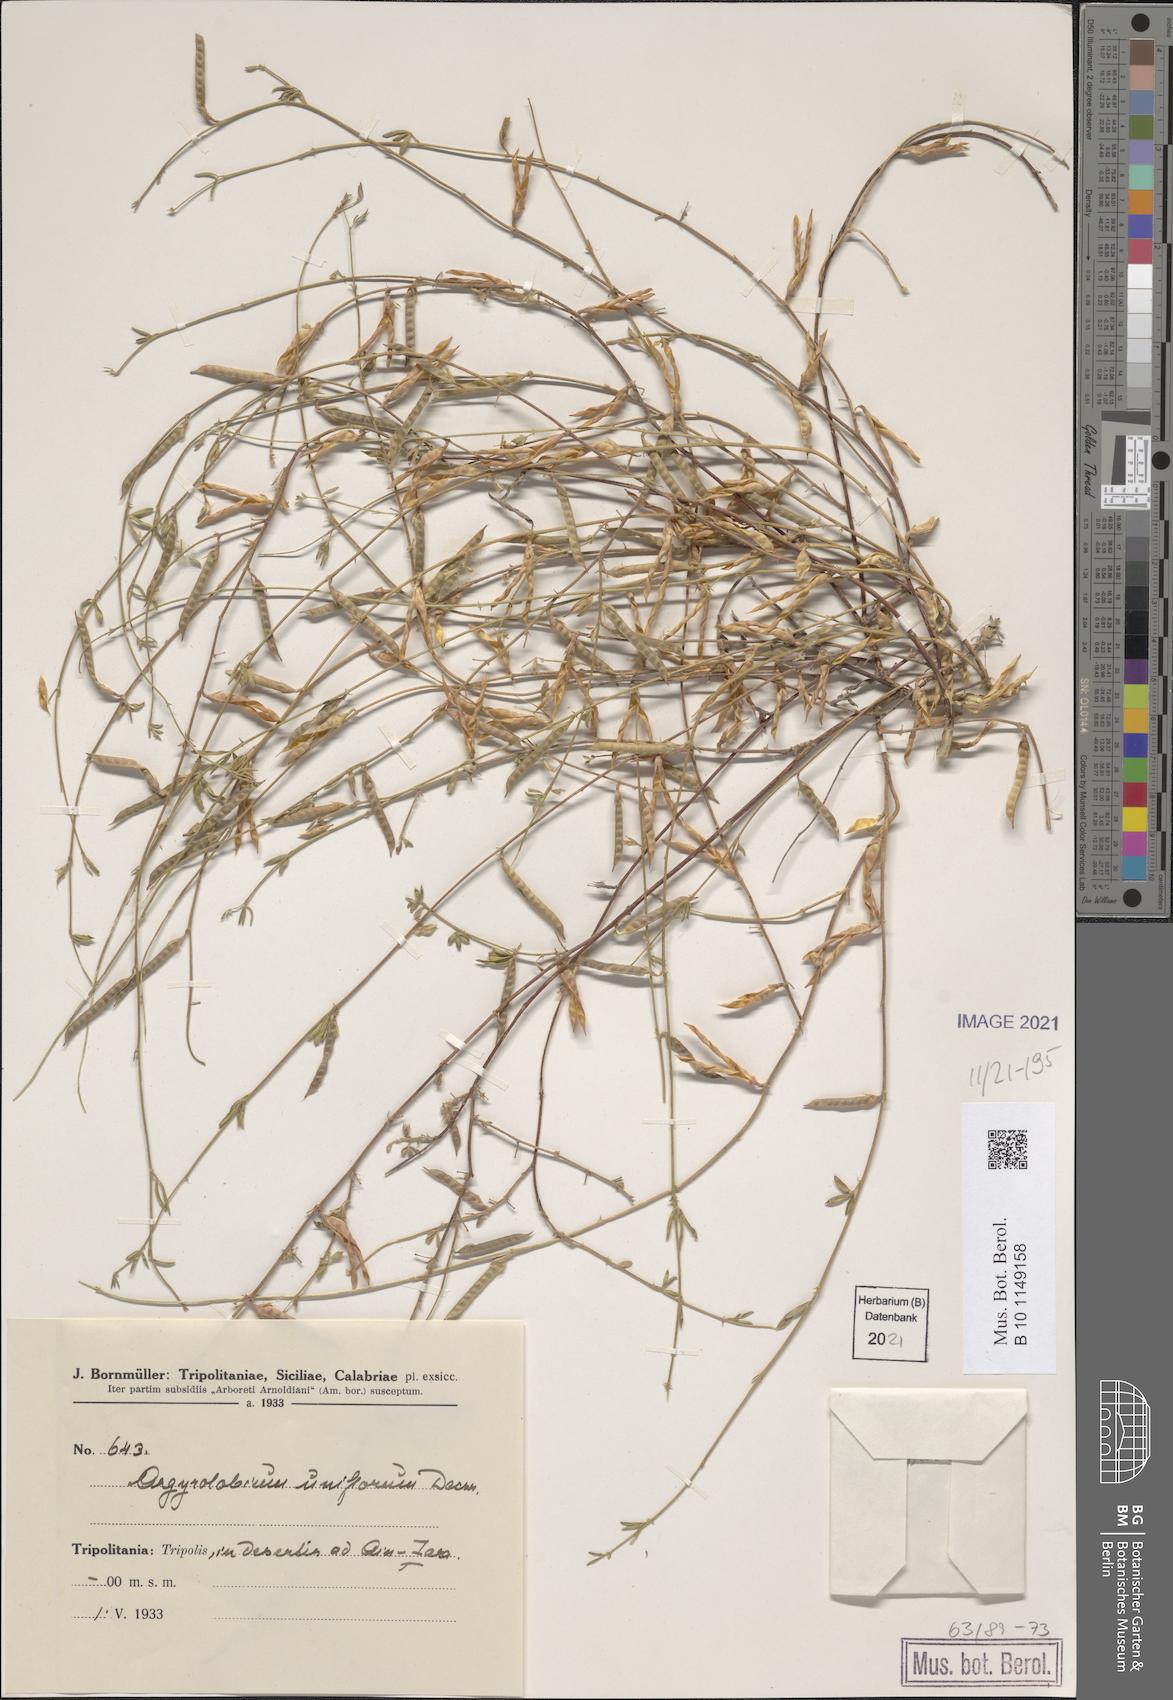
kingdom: Plantae
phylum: Tracheophyta
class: Magnoliopsida
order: Fabales
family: Fabaceae
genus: Argyrolobium
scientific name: Argyrolobium uniflorum
